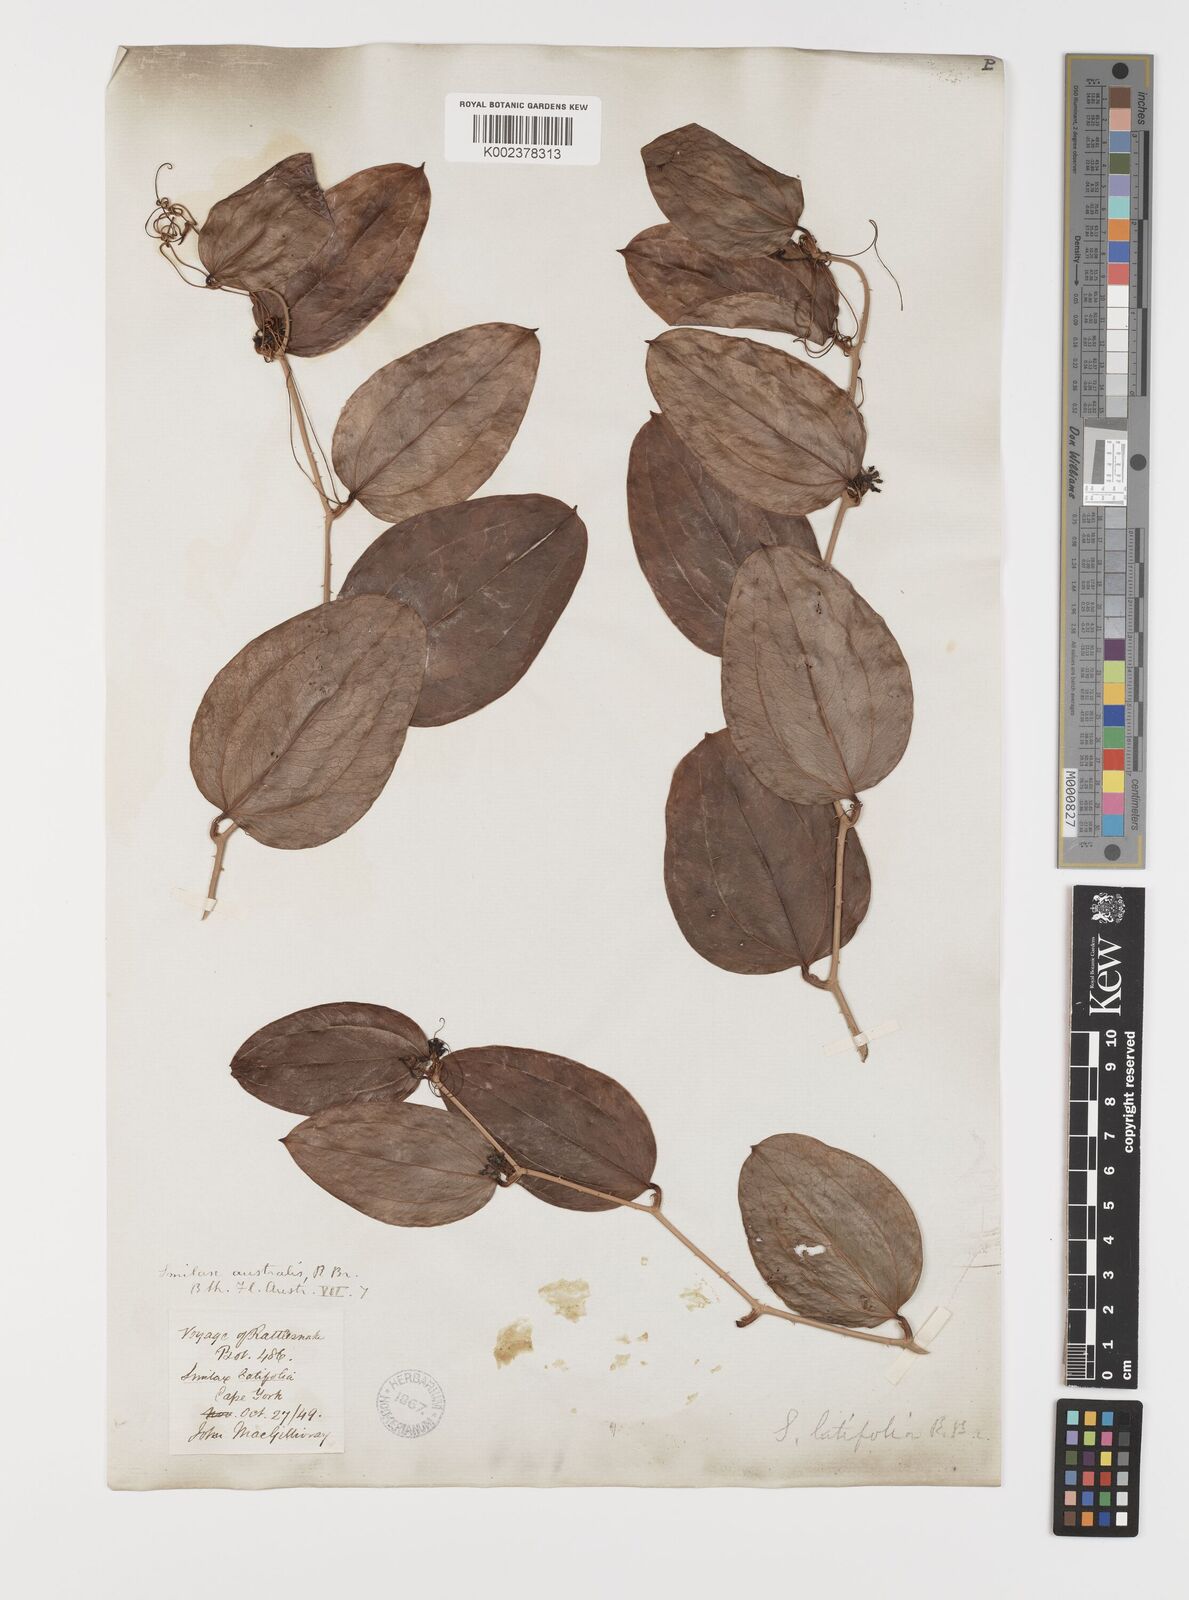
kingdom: Plantae
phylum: Tracheophyta
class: Liliopsida
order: Liliales
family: Smilacaceae
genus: Smilax
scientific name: Smilax australis
